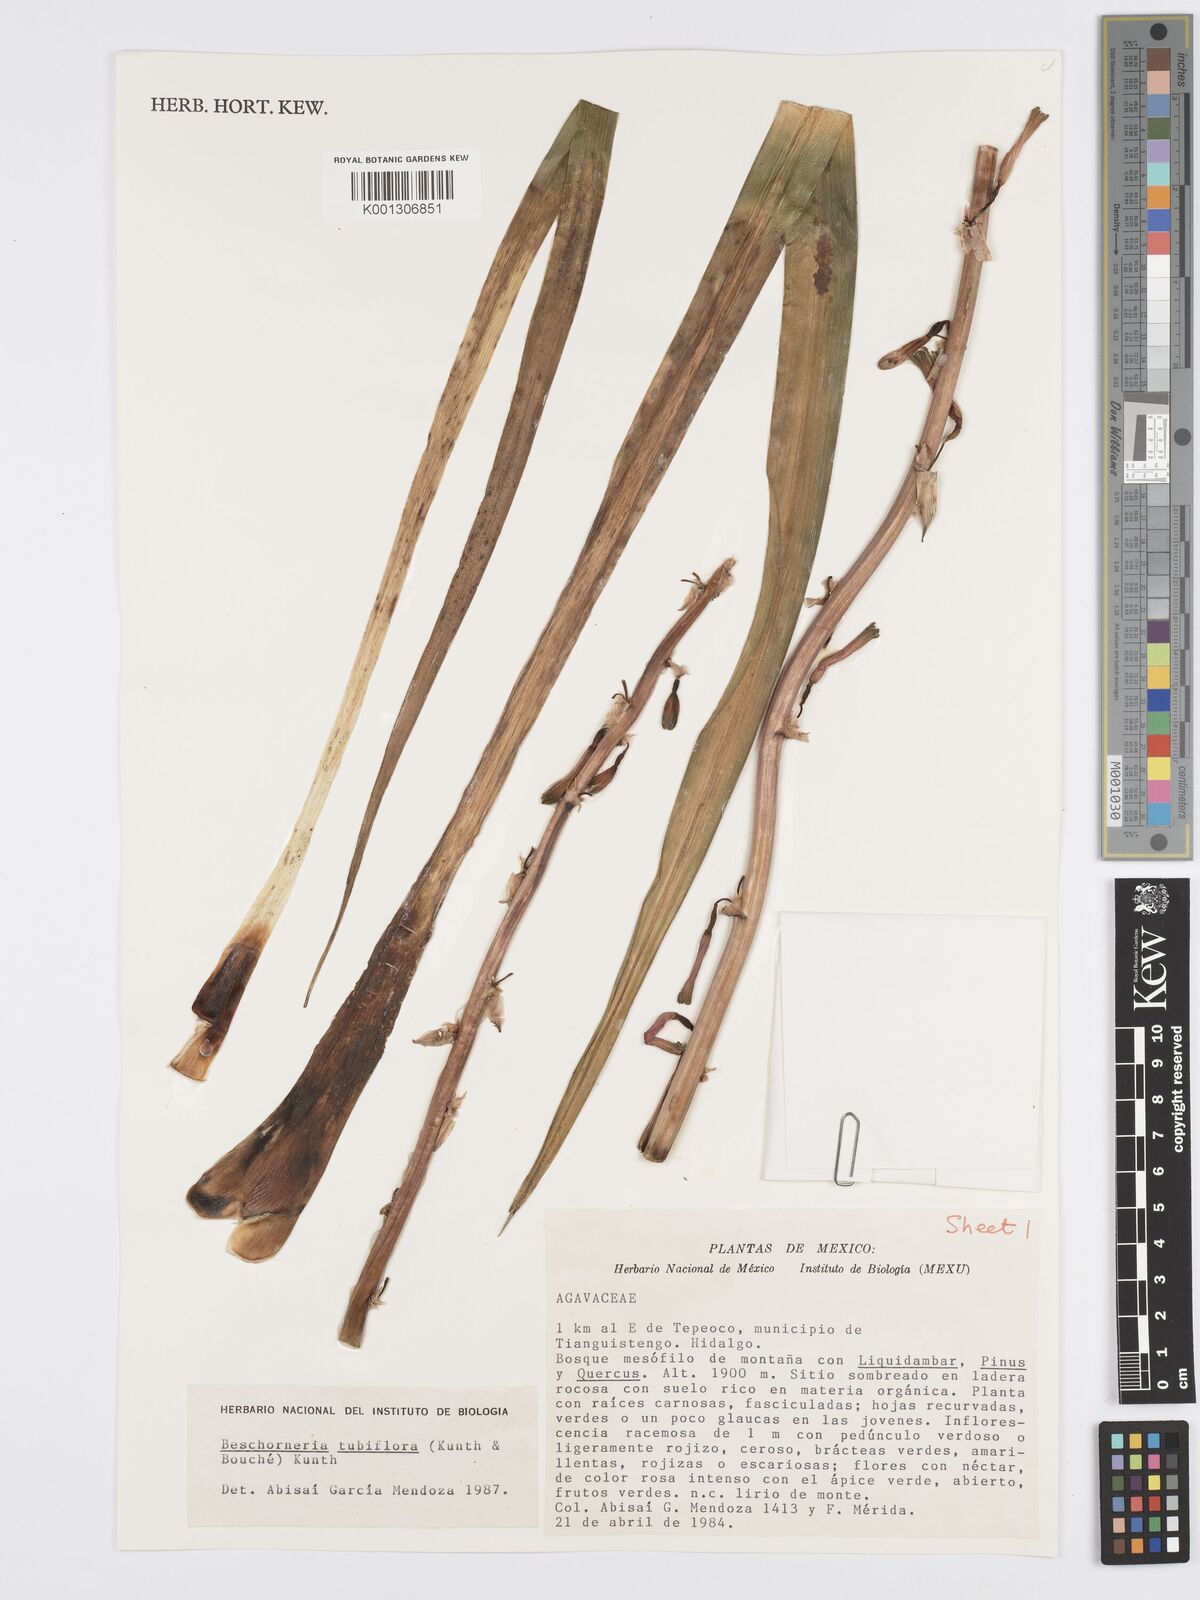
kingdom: Plantae
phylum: Tracheophyta
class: Liliopsida
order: Asparagales
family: Asparagaceae
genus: Beschorneria
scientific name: Beschorneria tubiflora
